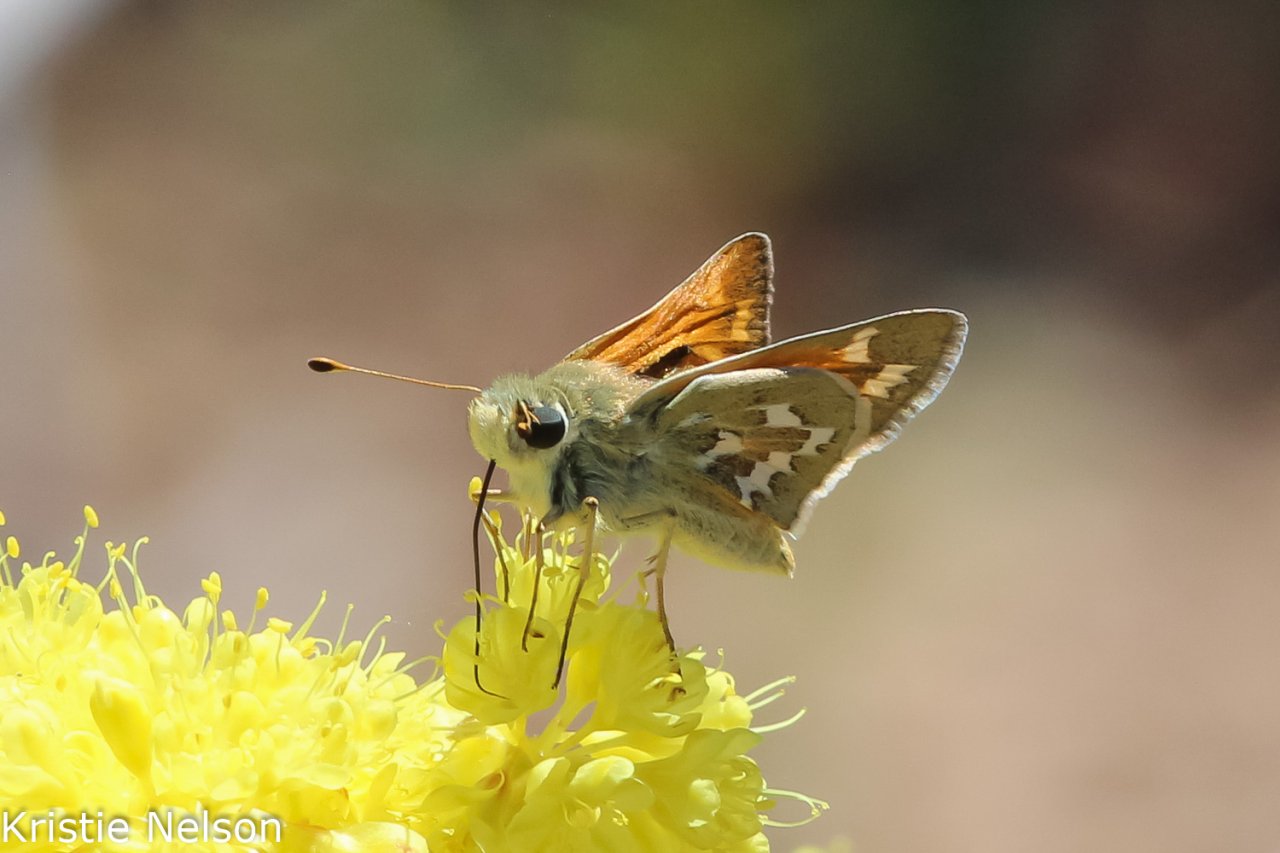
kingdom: Animalia
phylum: Arthropoda
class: Insecta
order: Lepidoptera
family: Hesperiidae
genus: Hesperia
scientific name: Hesperia comma
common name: Western Branded Skipper
